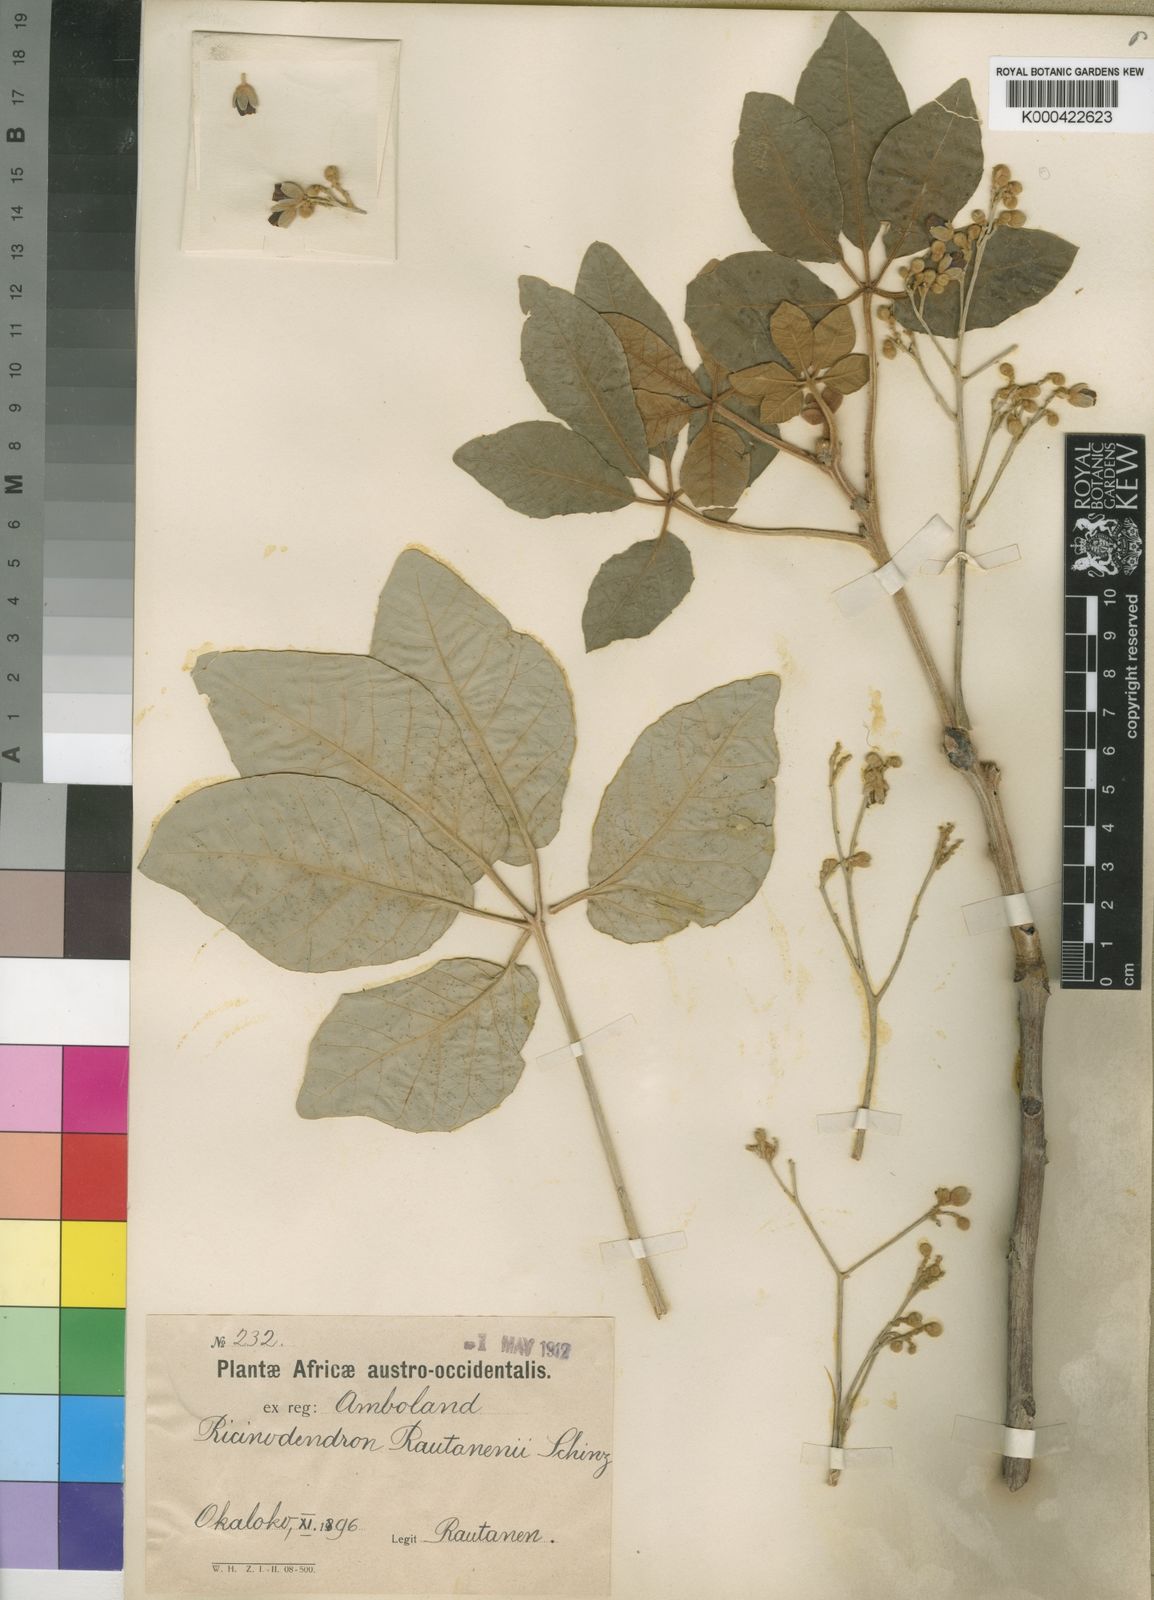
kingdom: Plantae
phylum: Tracheophyta
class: Magnoliopsida
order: Malpighiales
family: Euphorbiaceae
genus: Schinziophyton
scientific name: Schinziophyton rautanenii
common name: Manketti
